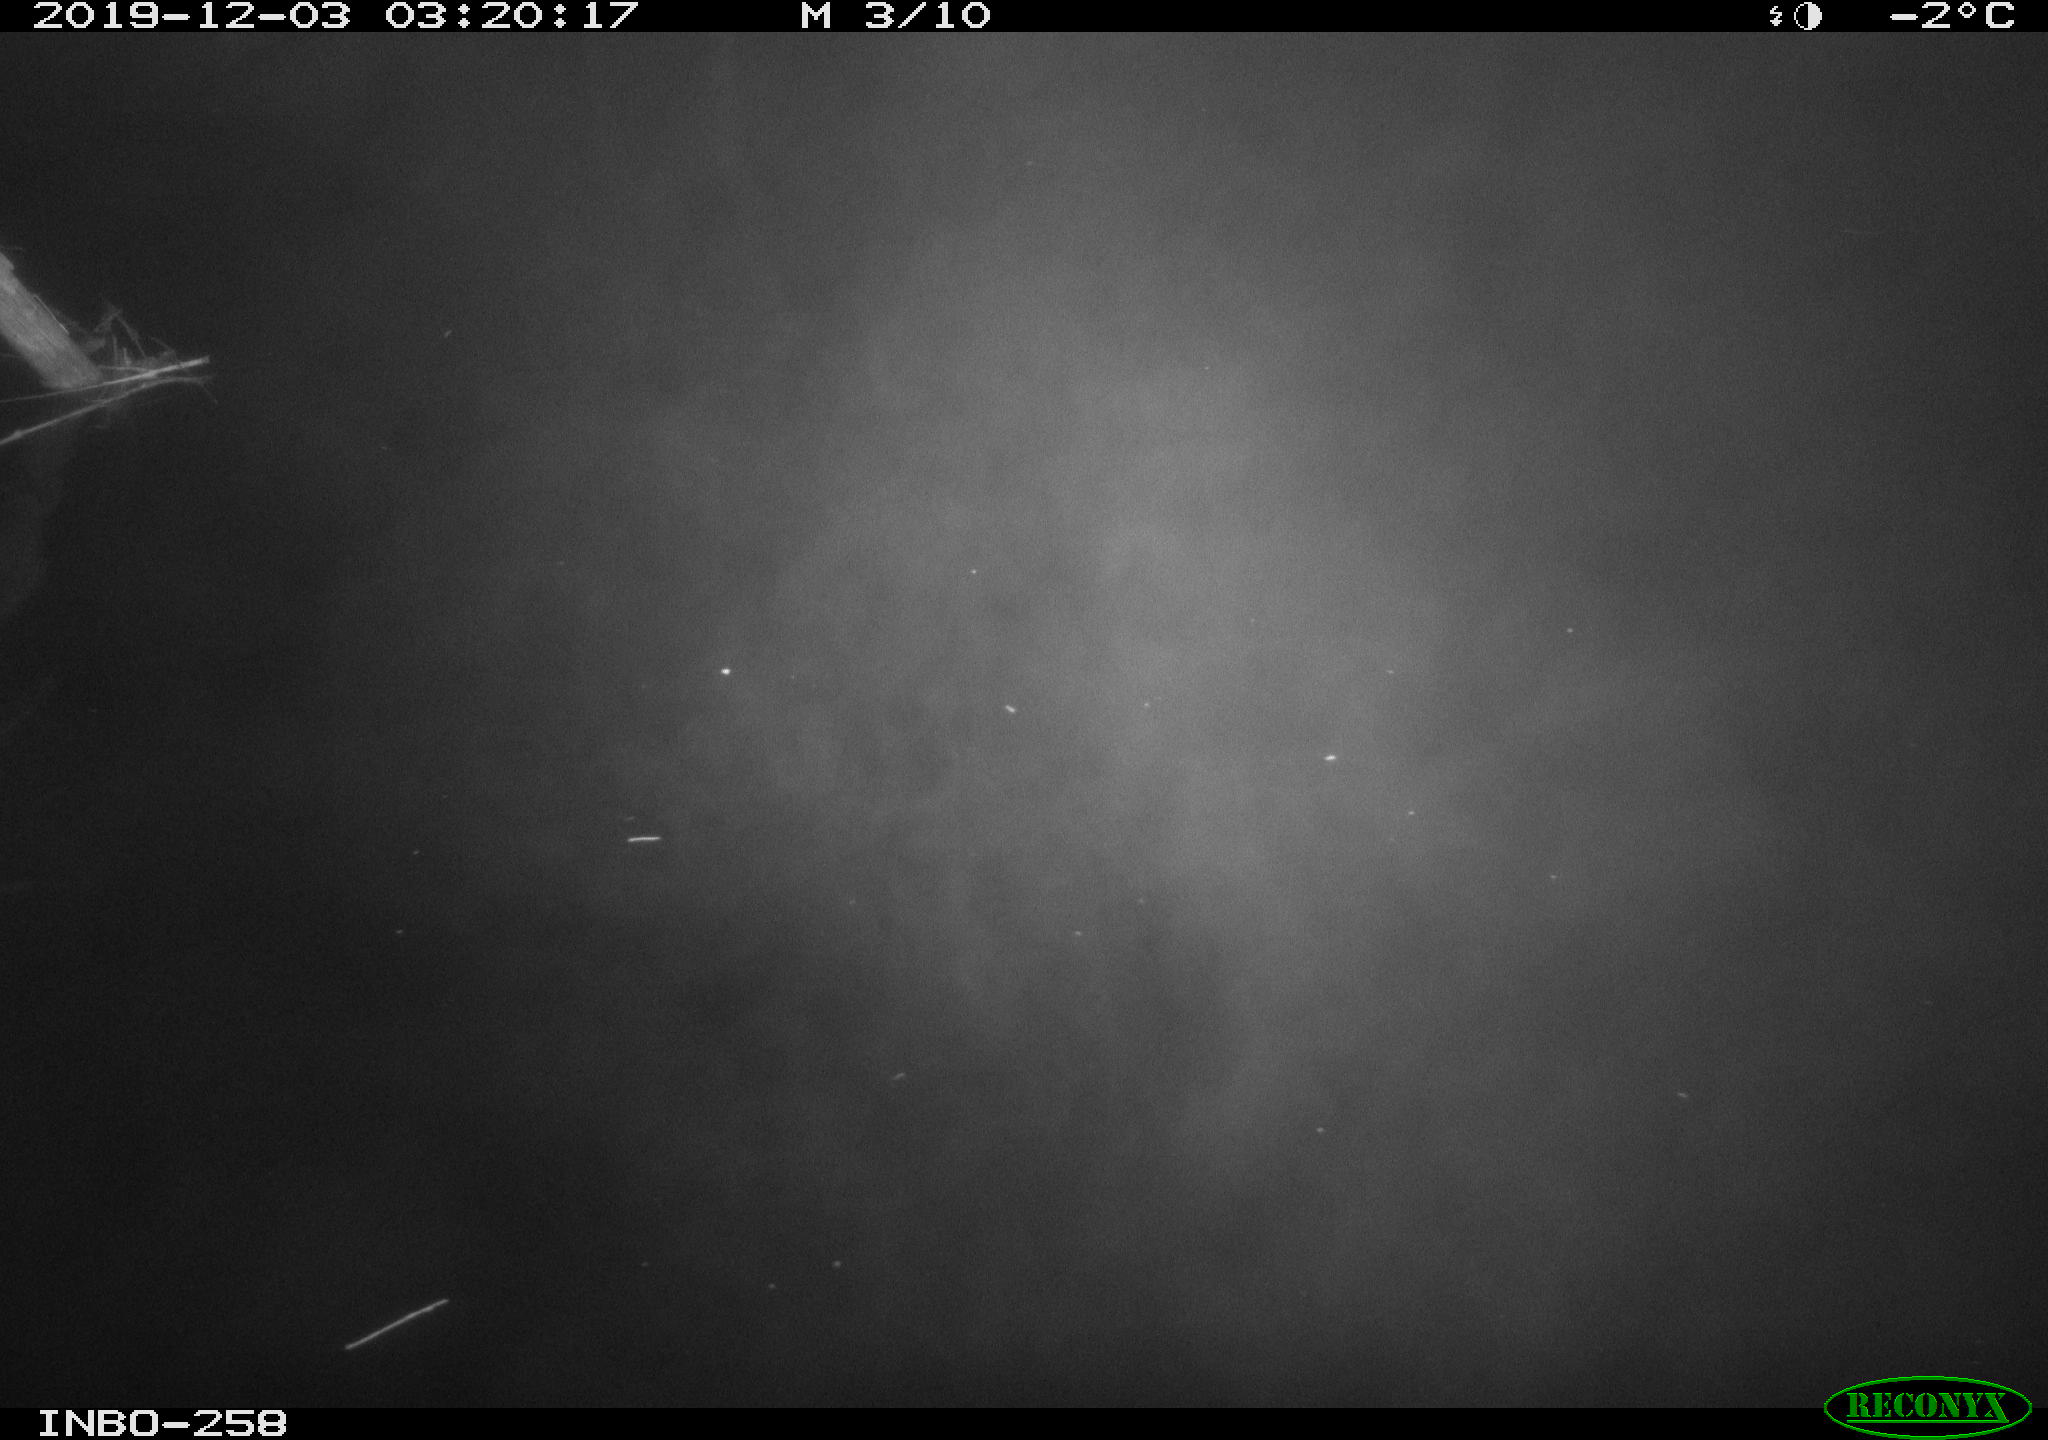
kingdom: Animalia
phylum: Chordata
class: Aves
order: Anseriformes
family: Anatidae
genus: Anas
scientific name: Anas platyrhynchos
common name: Mallard
